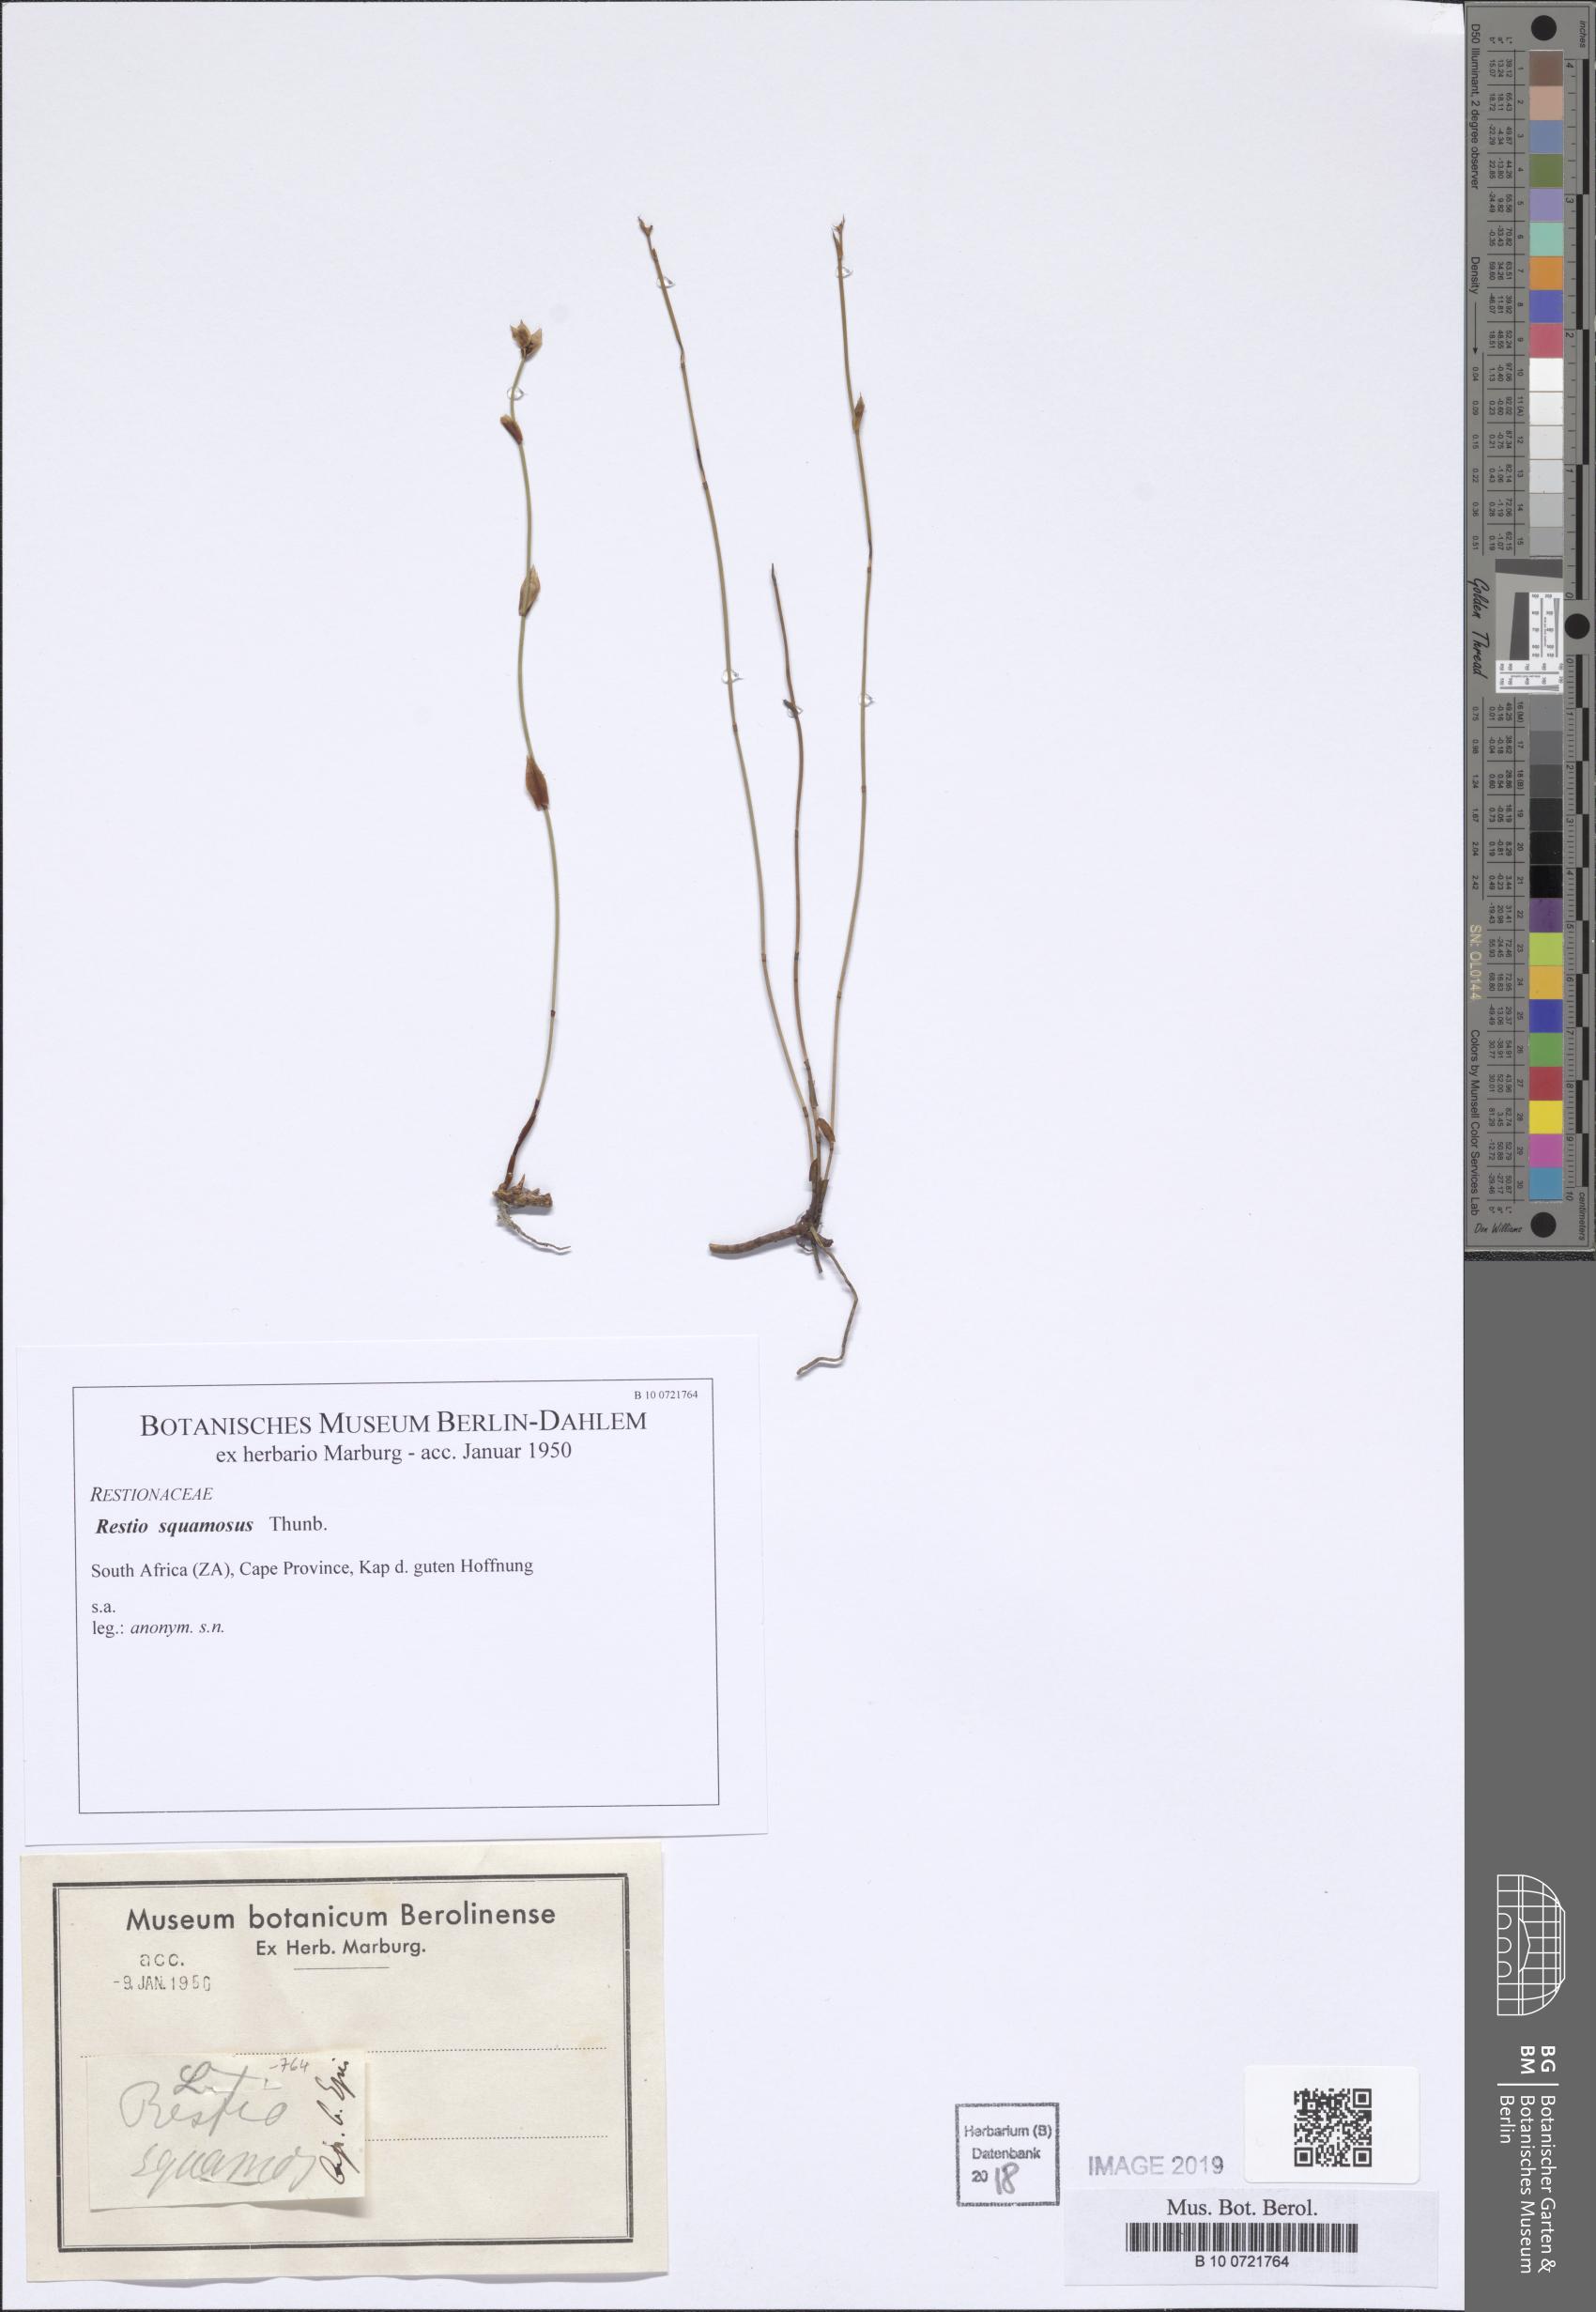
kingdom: Plantae
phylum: Tracheophyta
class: Liliopsida
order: Poales
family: Restionaceae
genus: Restio
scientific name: Restio squamosus
